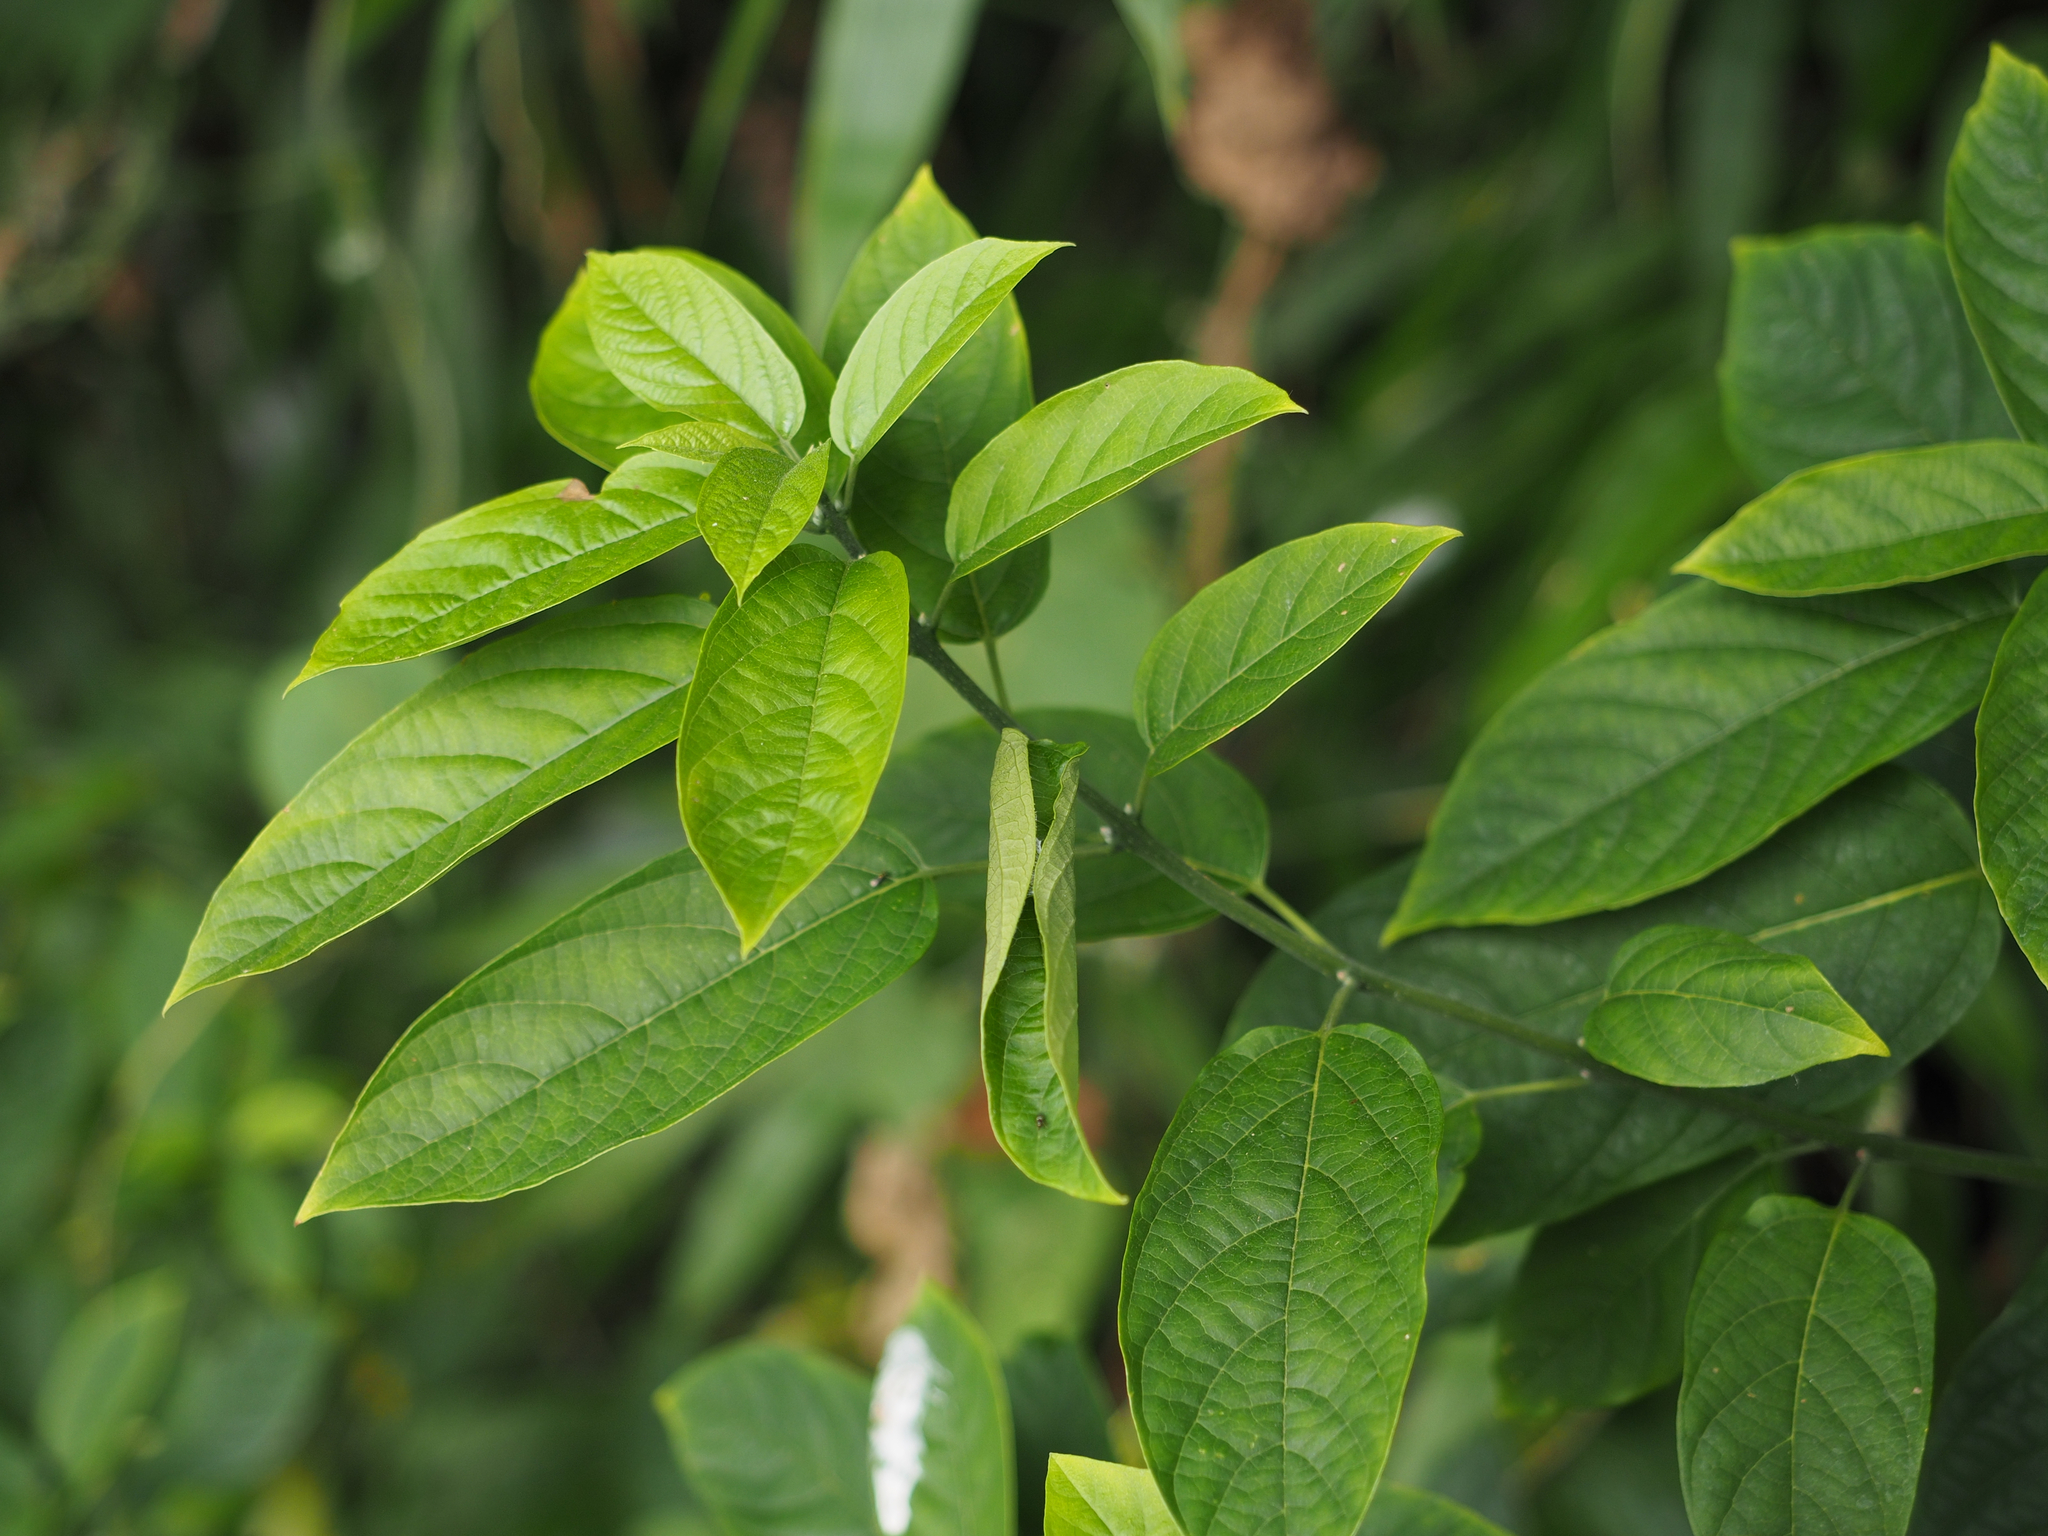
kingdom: Plantae
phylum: Tracheophyta
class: Magnoliopsida
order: Lamiales
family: Lamiaceae
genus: Clerodendrum
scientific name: Clerodendrum cyrtophyllum
